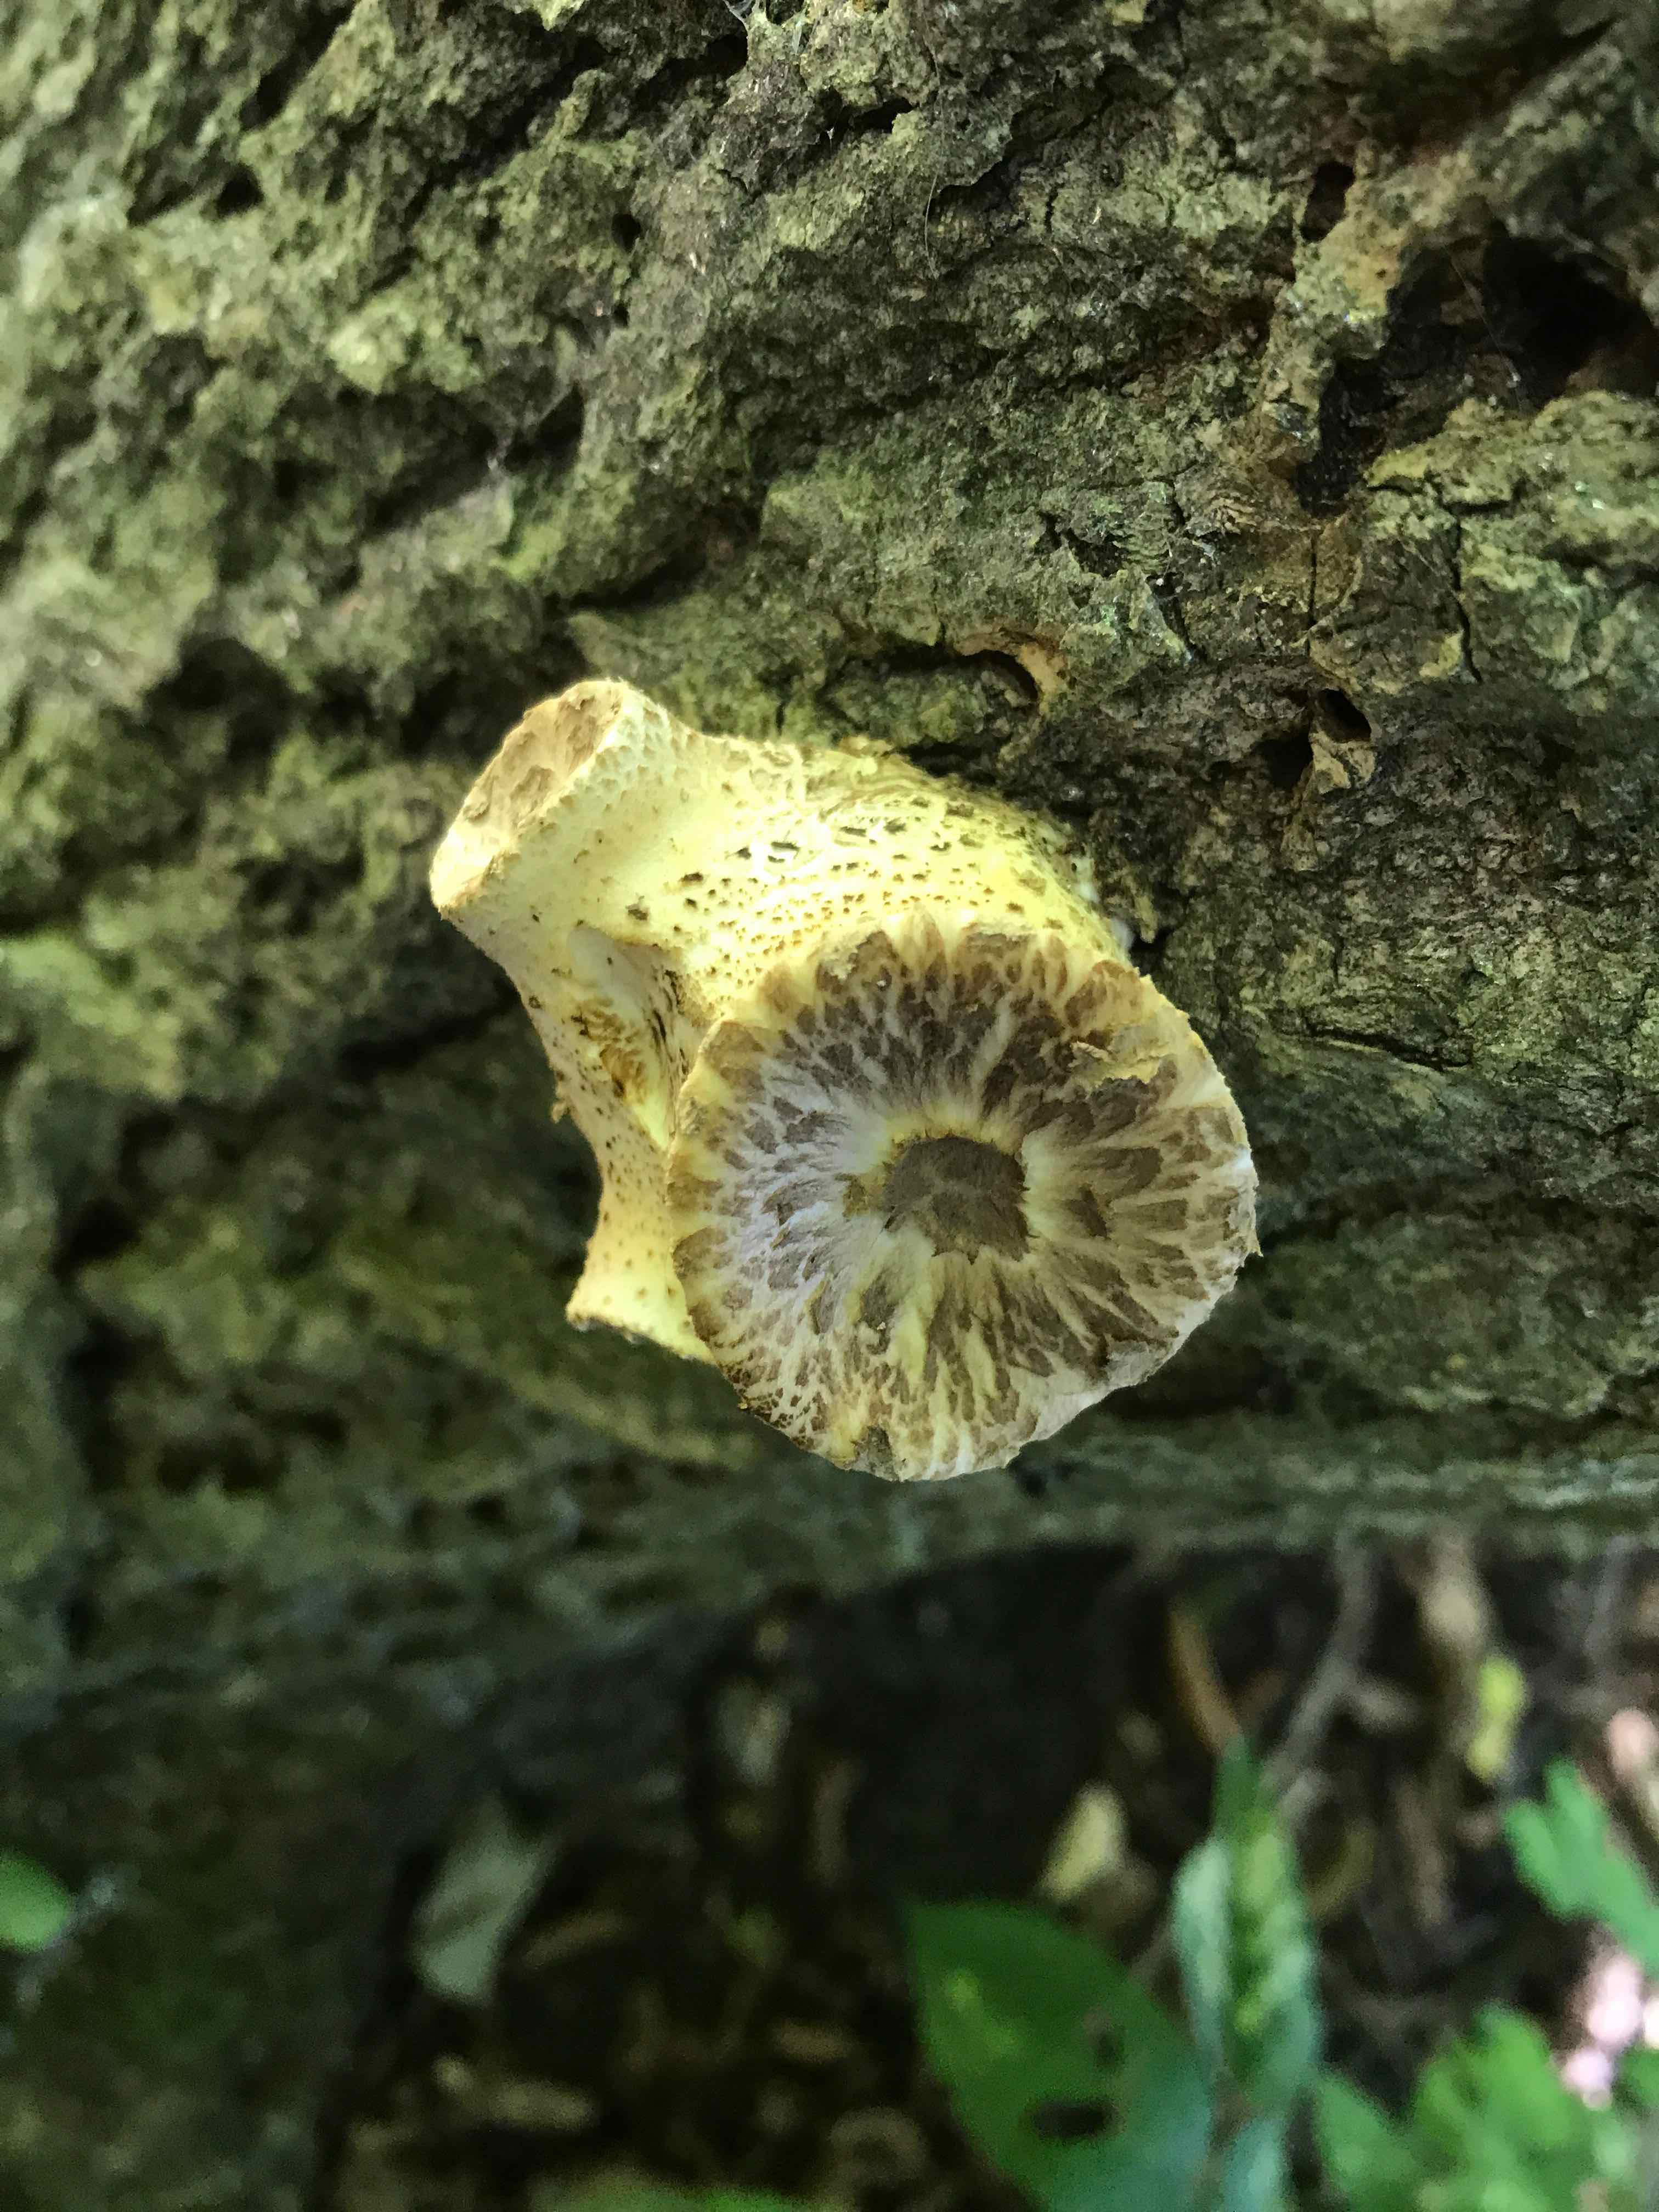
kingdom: Fungi
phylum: Basidiomycota
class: Agaricomycetes
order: Polyporales
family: Polyporaceae
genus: Cerioporus
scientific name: Cerioporus squamosus
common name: skællet stilkporesvamp
